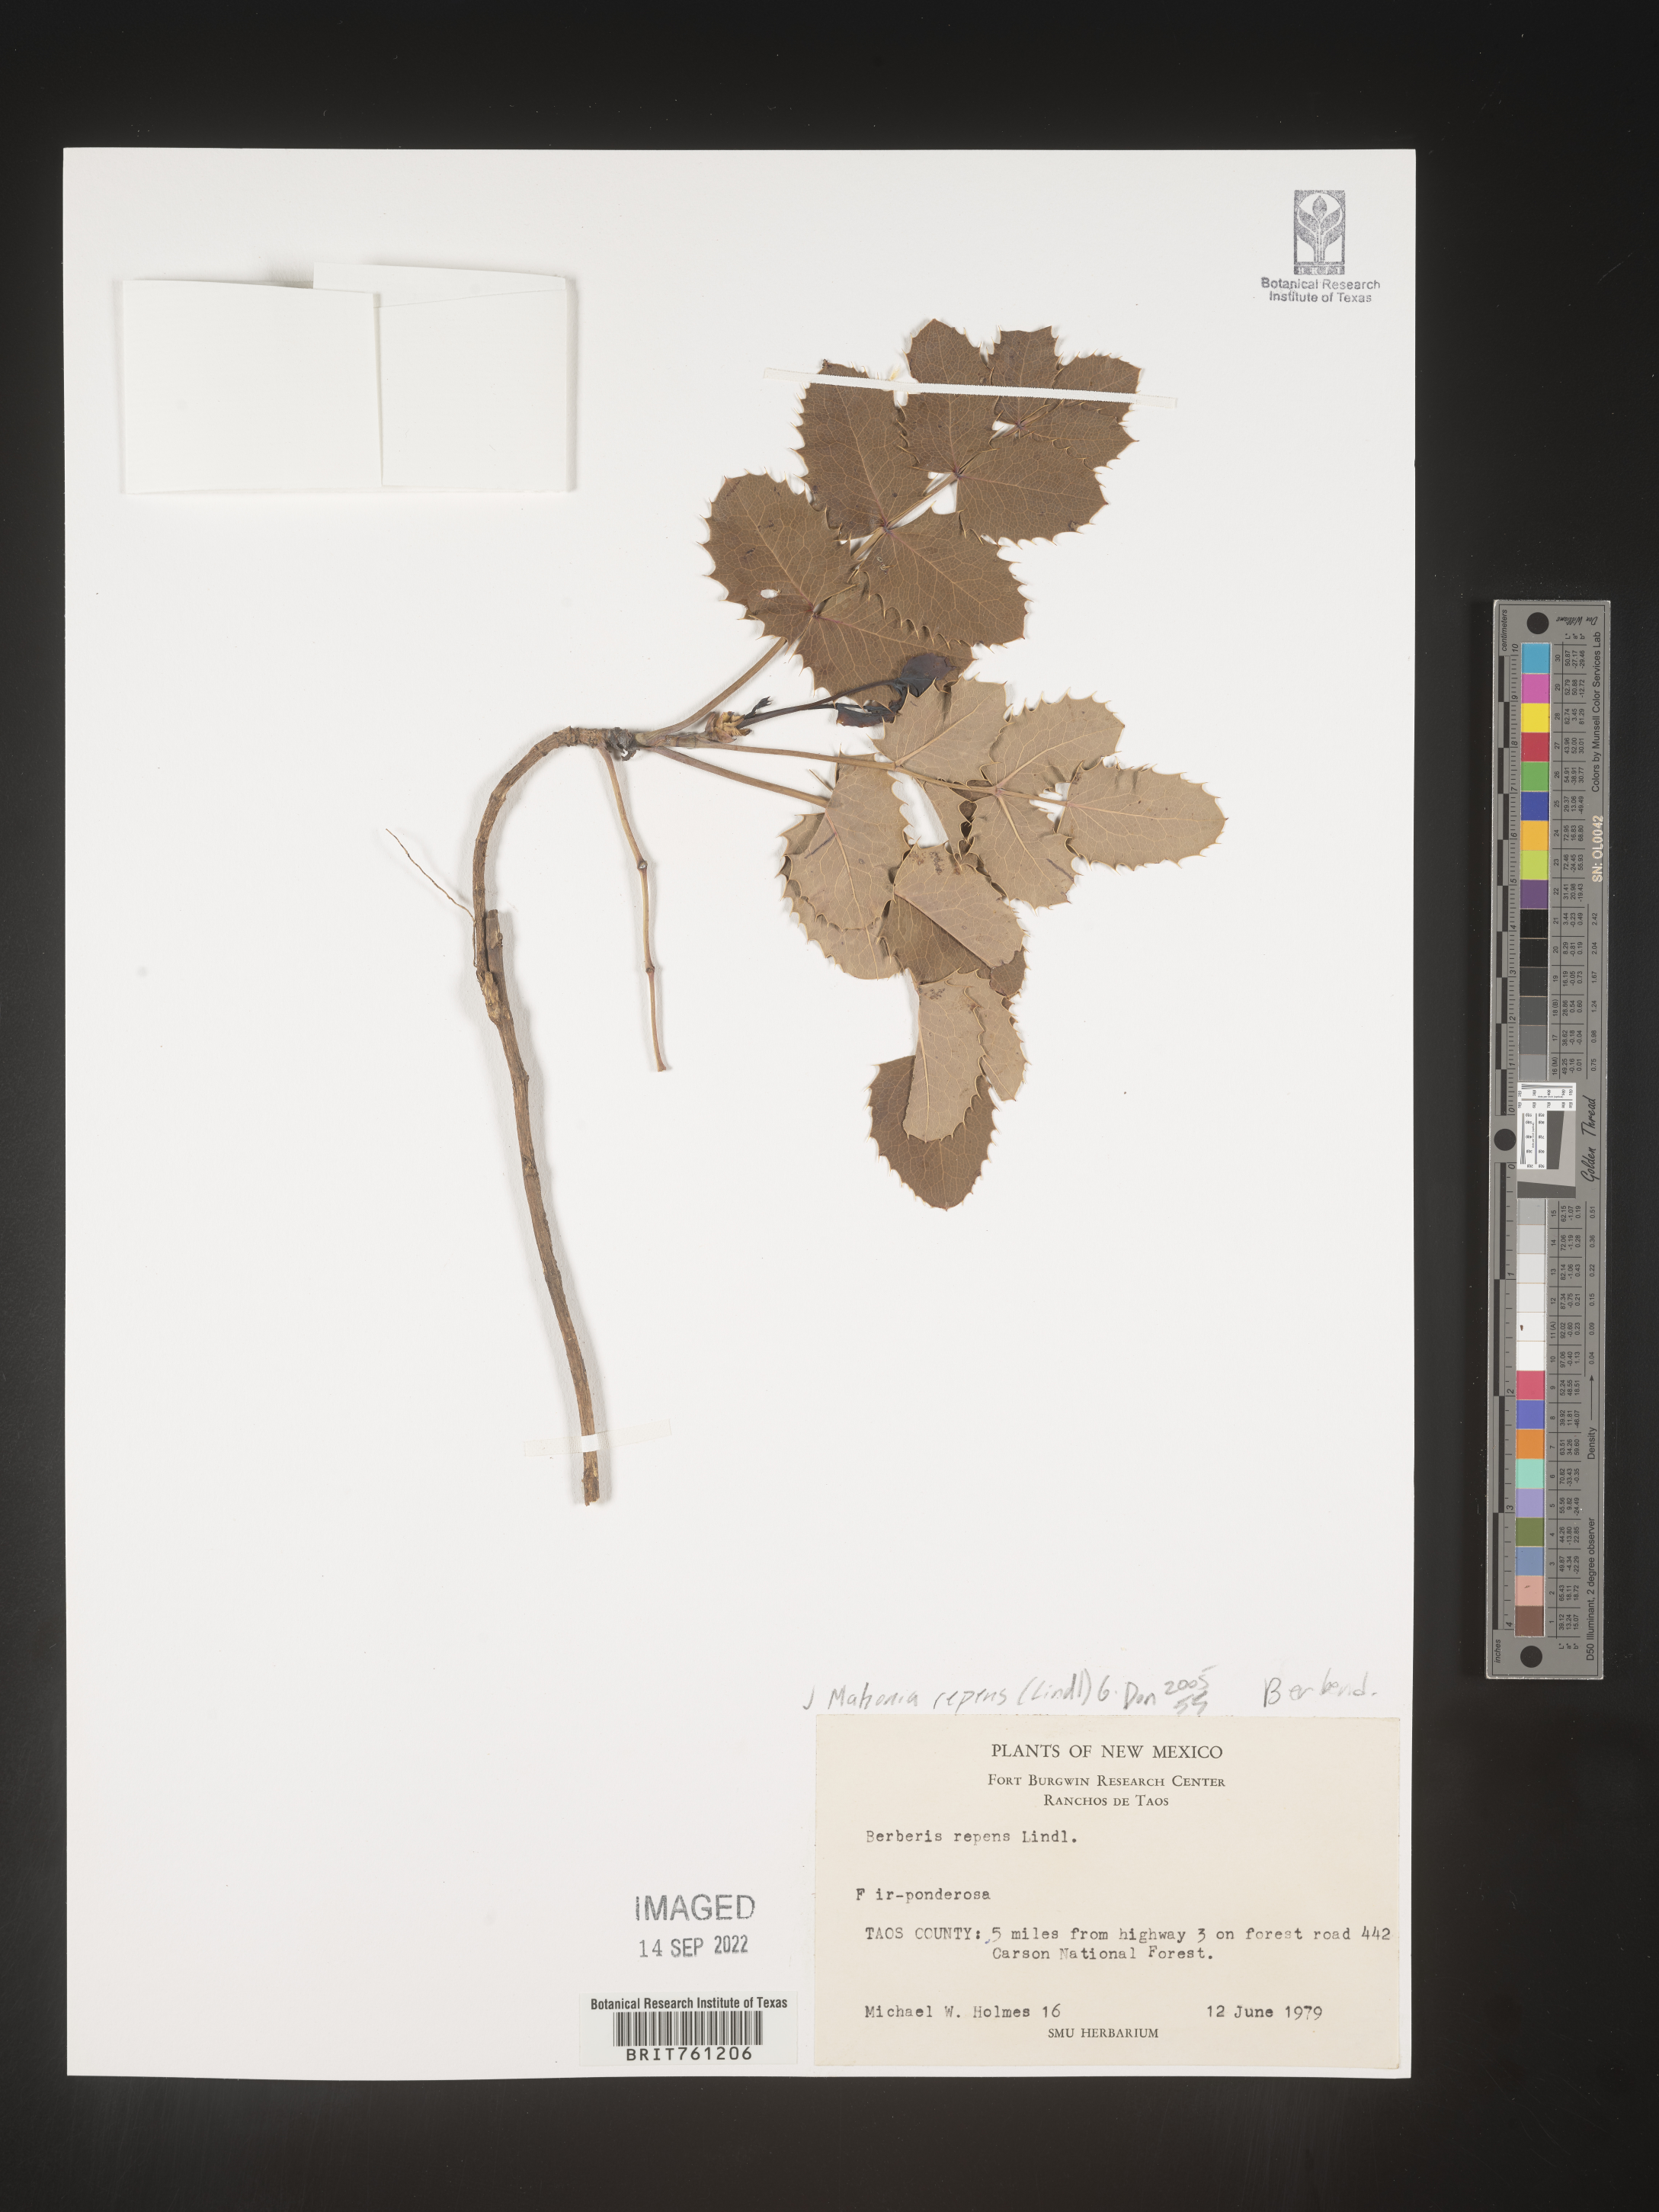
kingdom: Plantae
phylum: Tracheophyta
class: Magnoliopsida
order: Ranunculales
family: Berberidaceae
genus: Mahonia
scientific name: Mahonia repens
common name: Creeping oregon-grape
